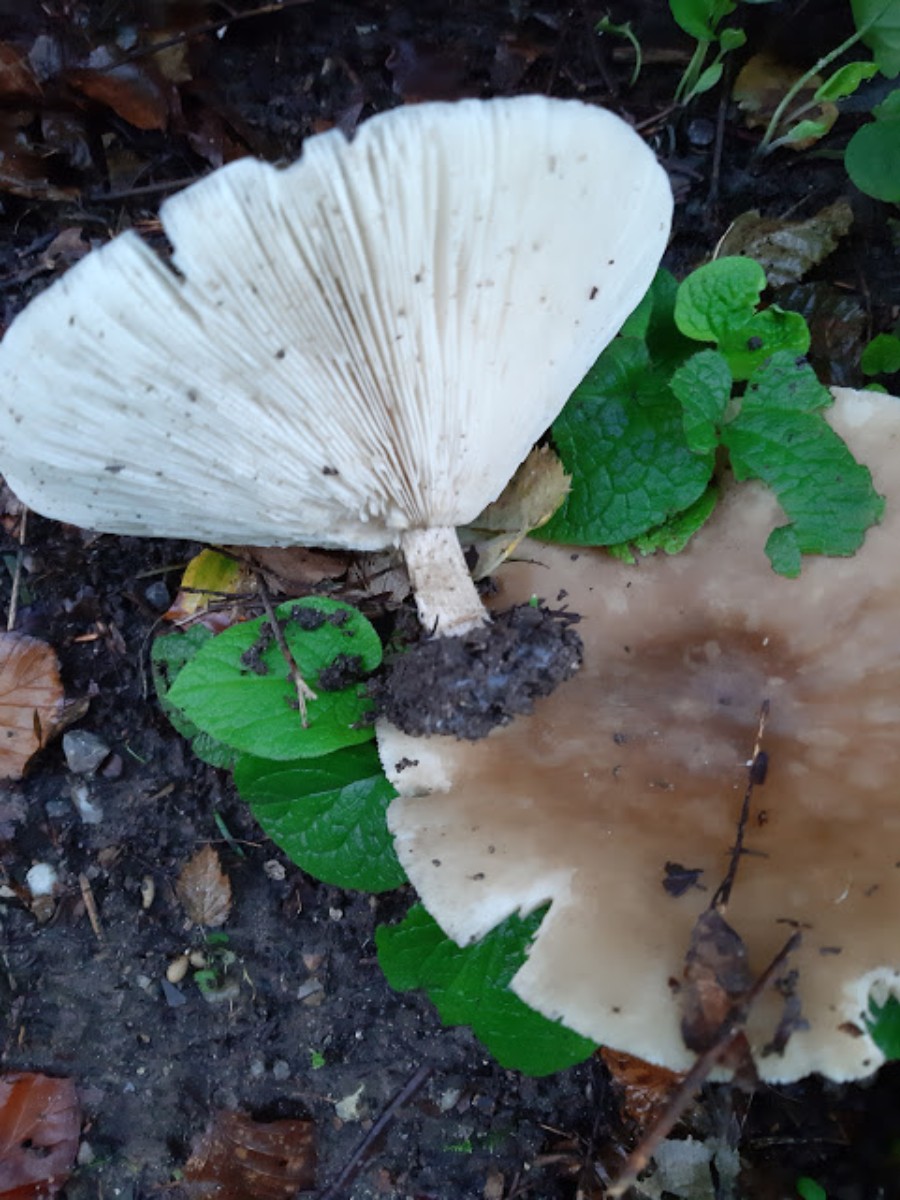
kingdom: Fungi
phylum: Basidiomycota
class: Agaricomycetes
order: Agaricales
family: Tricholomataceae
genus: Melanoleuca
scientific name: Melanoleuca grammopodia
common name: stribestokket munkehat
